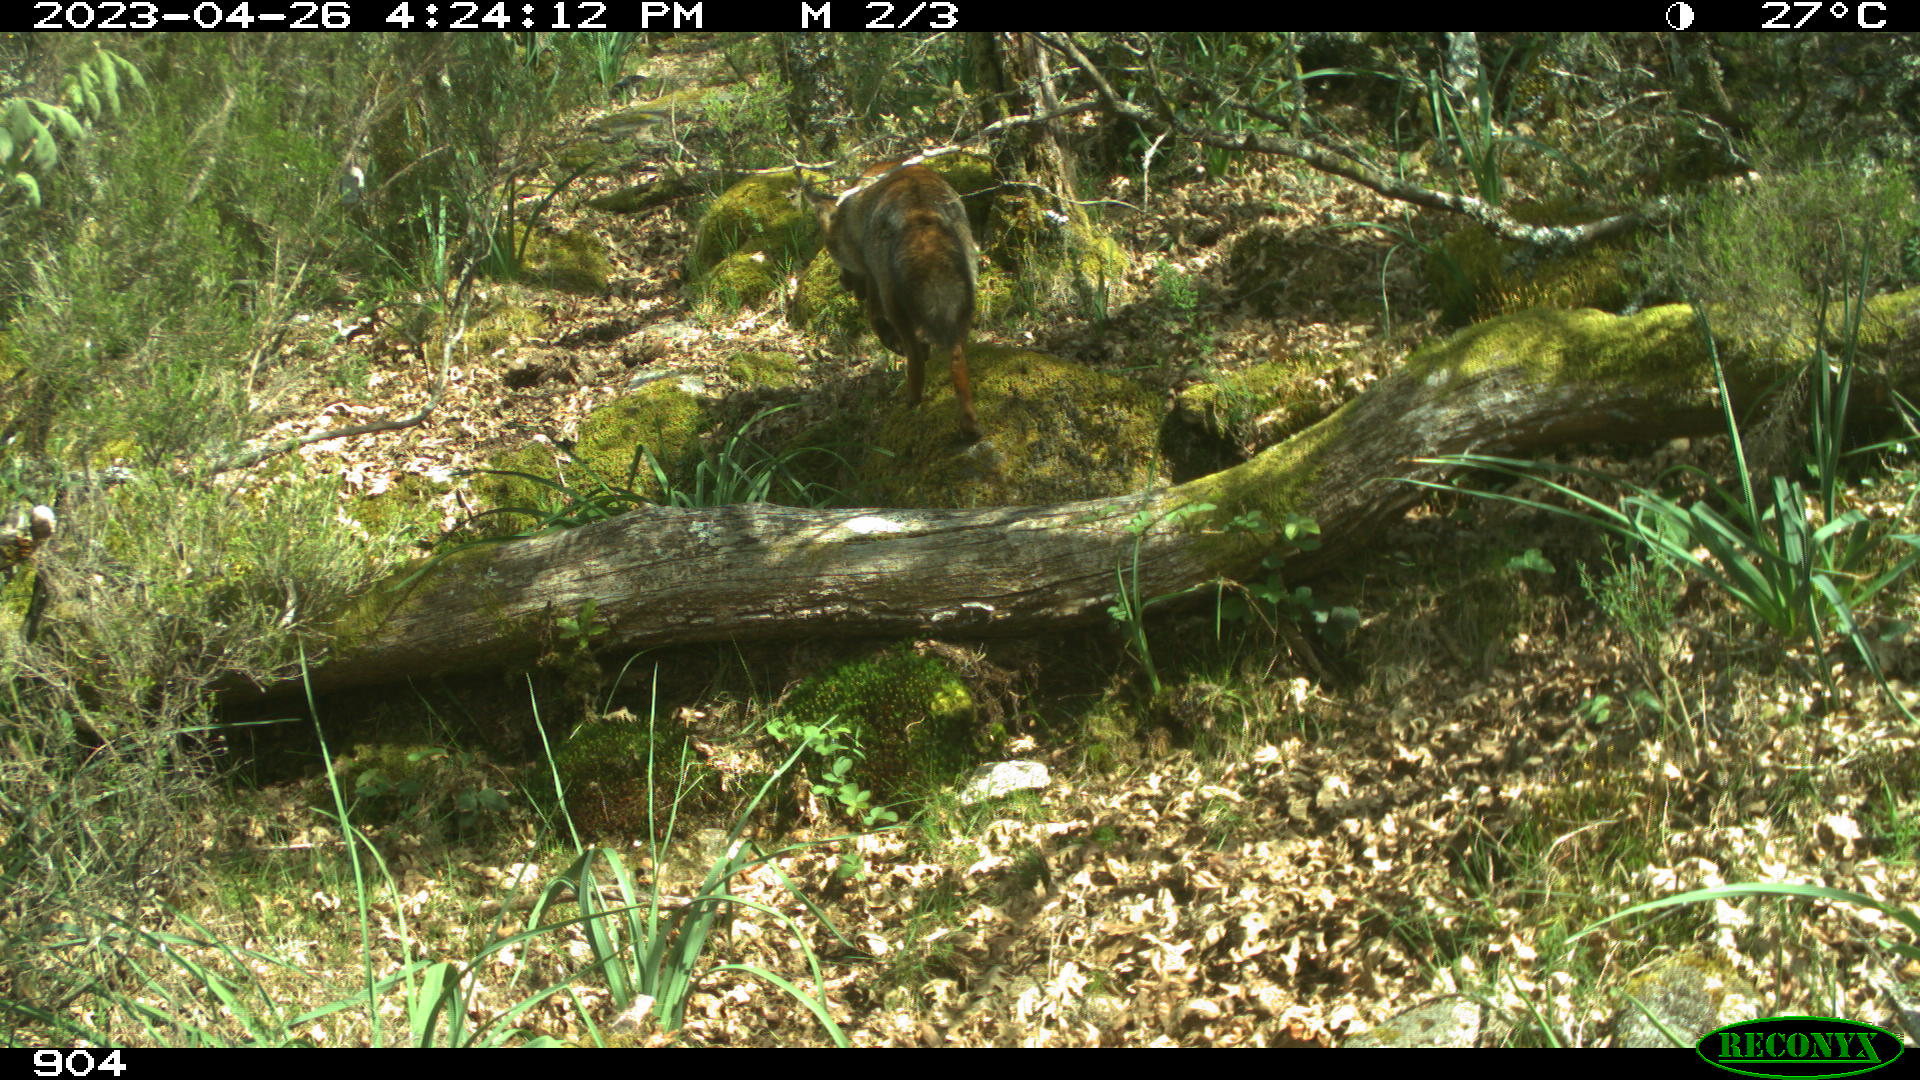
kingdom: Animalia
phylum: Chordata
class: Mammalia
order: Carnivora
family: Canidae
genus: Vulpes
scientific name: Vulpes vulpes
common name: Red fox
